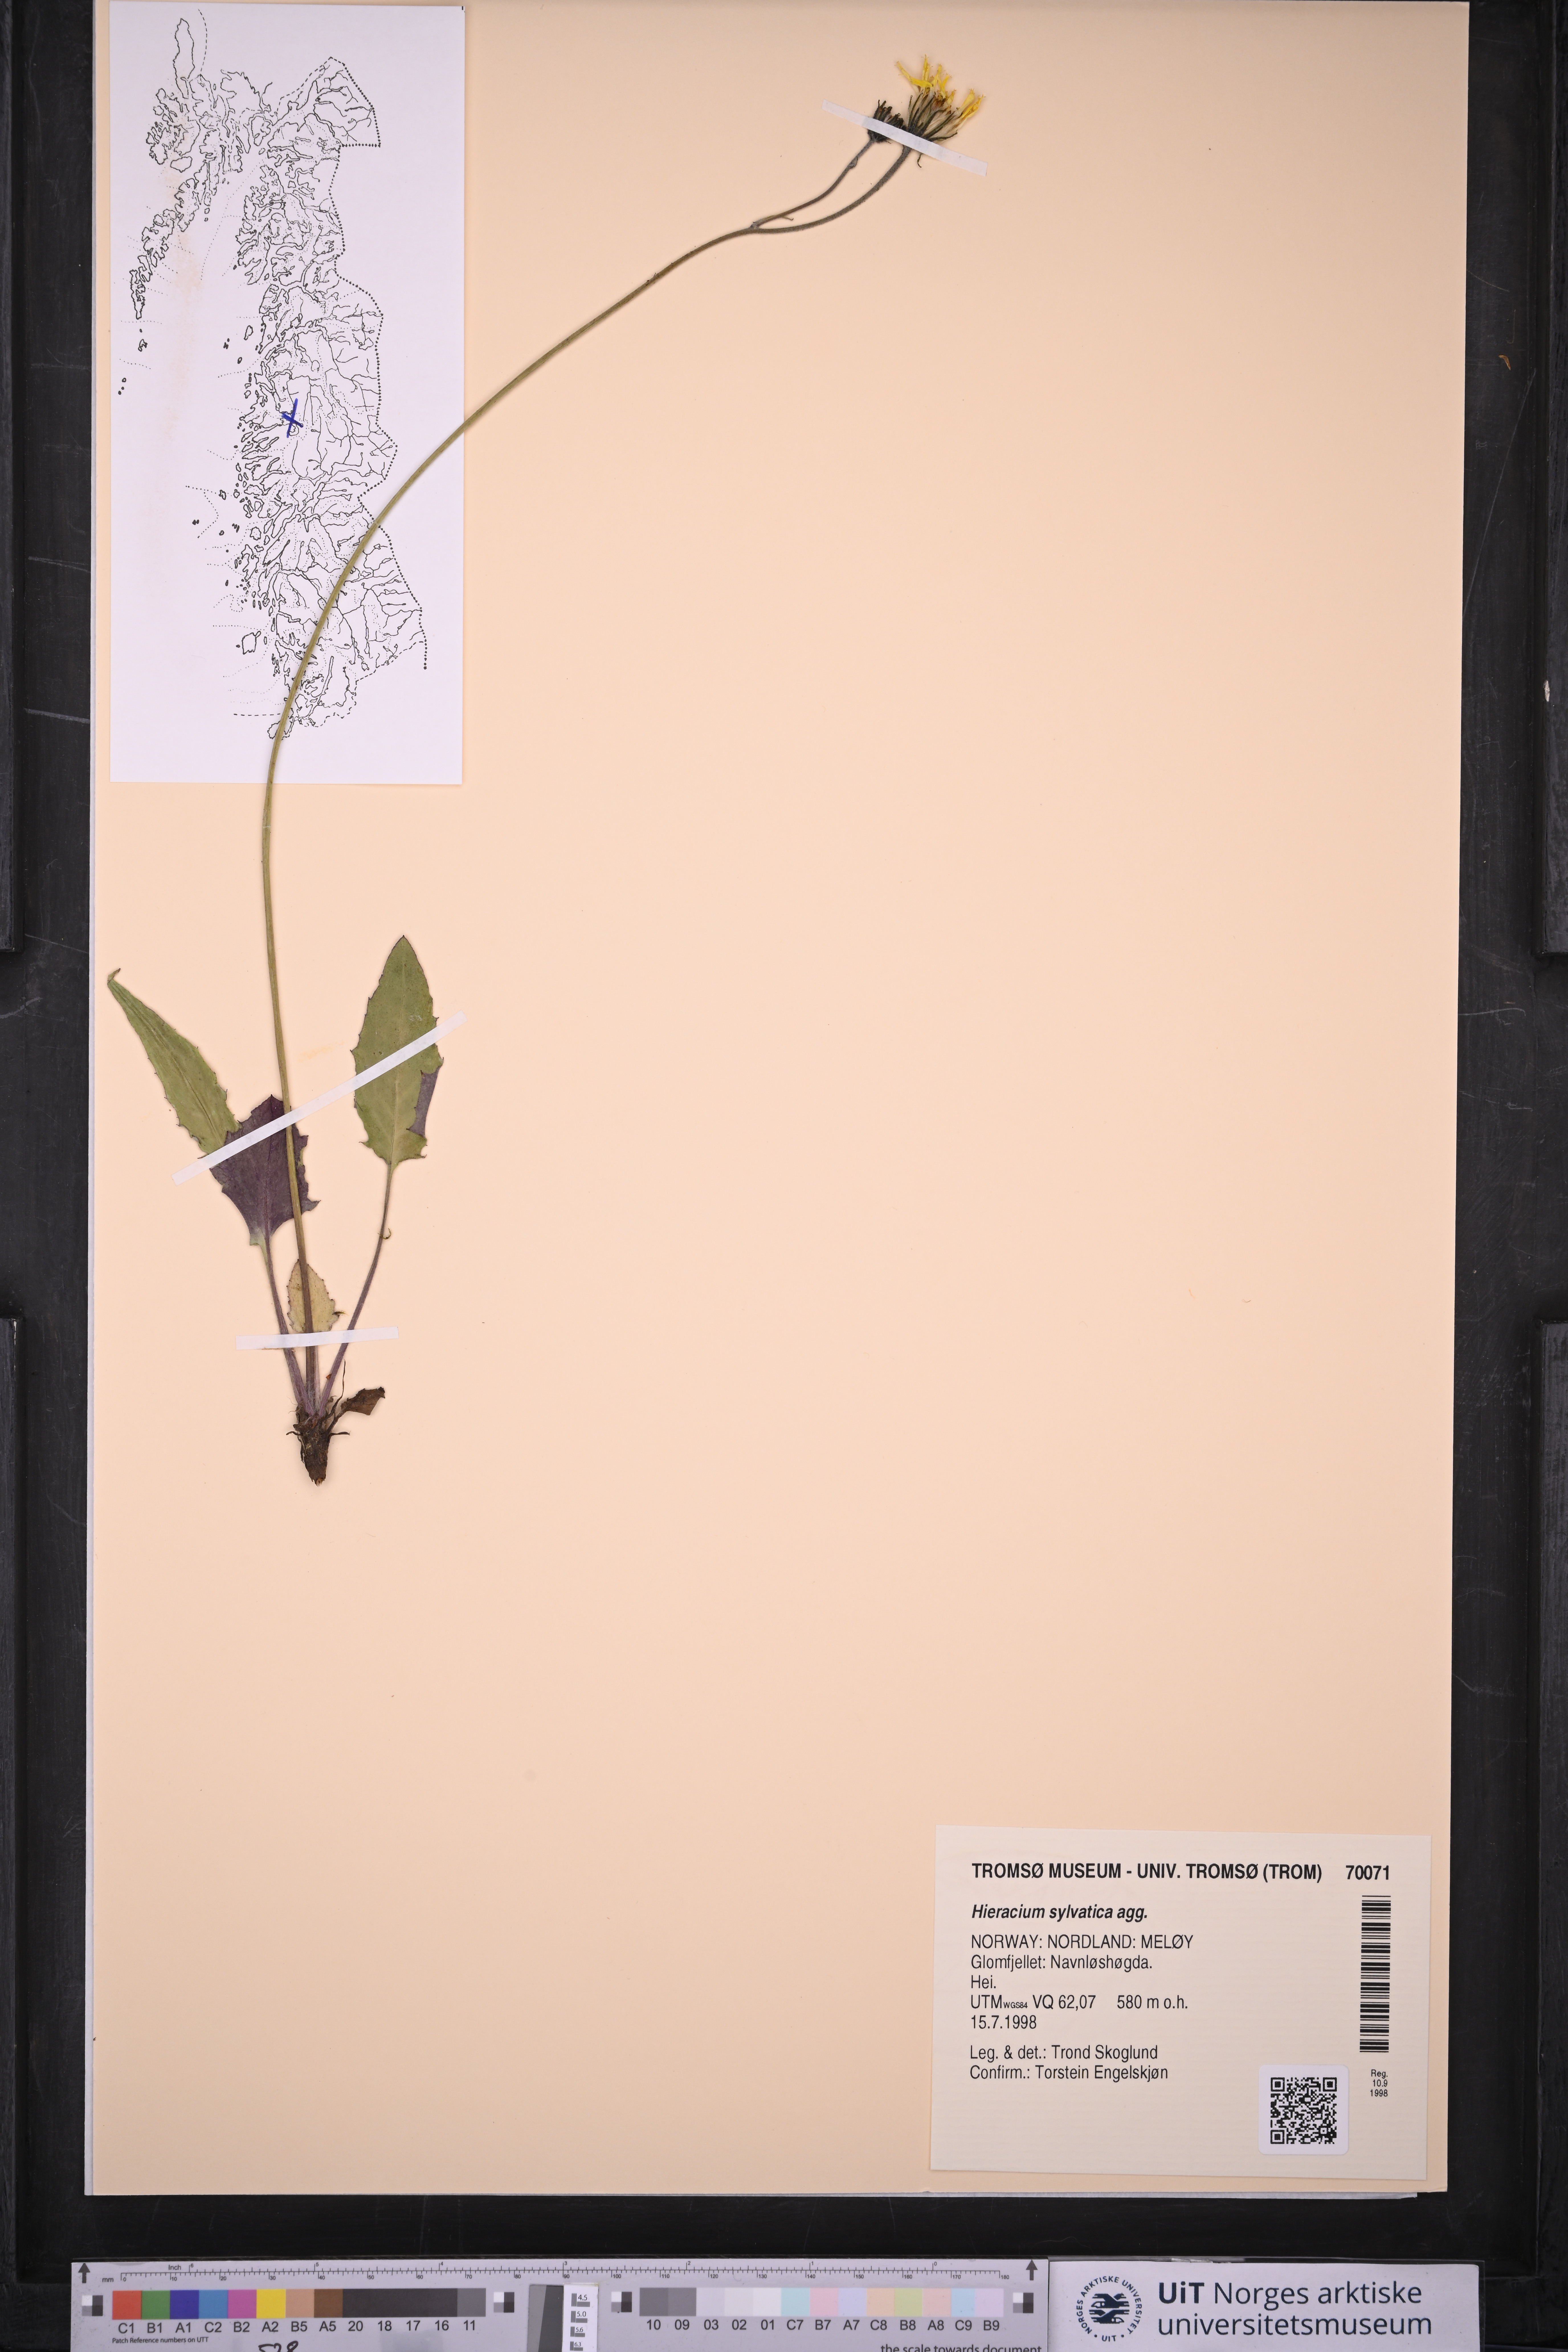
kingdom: Plantae
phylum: Tracheophyta
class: Magnoliopsida
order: Asterales
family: Asteraceae
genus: Hieracium
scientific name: Hieracium
